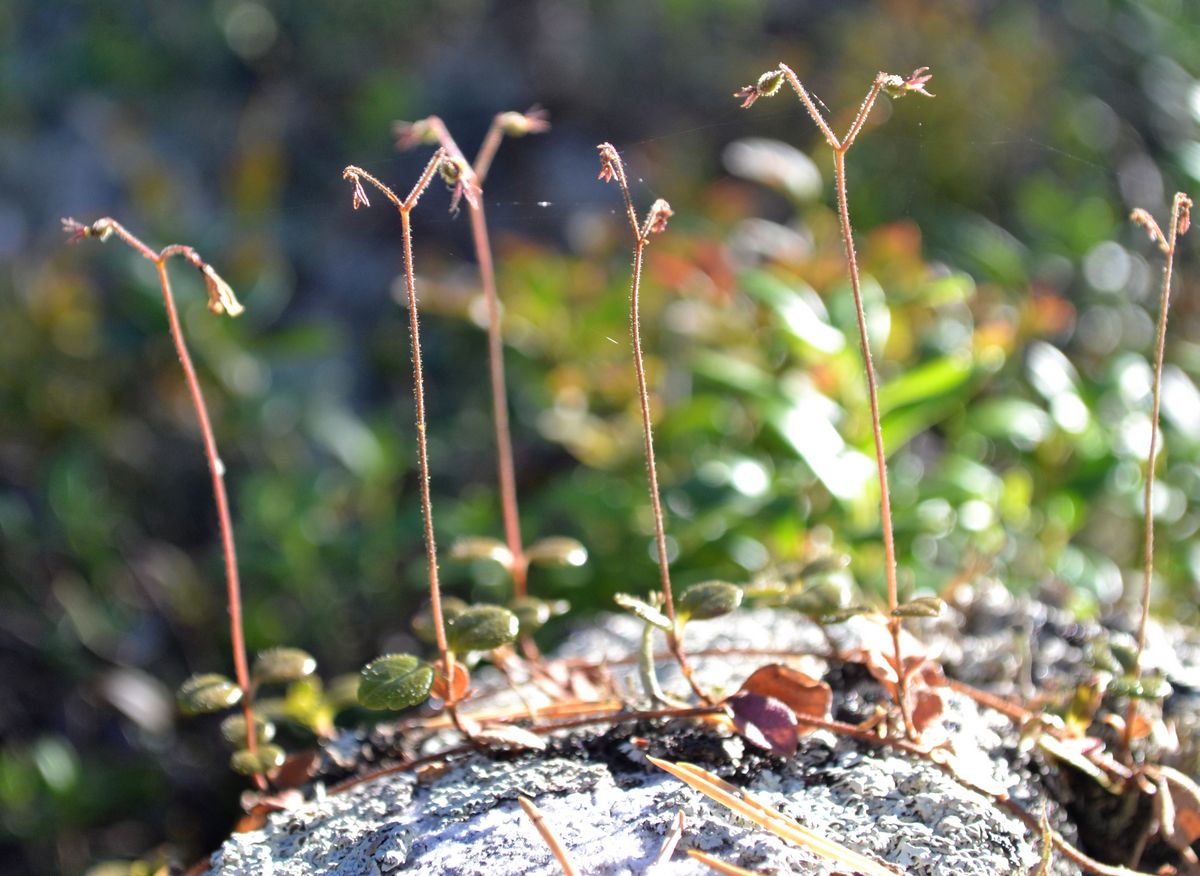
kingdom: Plantae
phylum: Tracheophyta
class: Magnoliopsida
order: Dipsacales
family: Caprifoliaceae
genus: Linnaea
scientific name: Linnaea borealis
